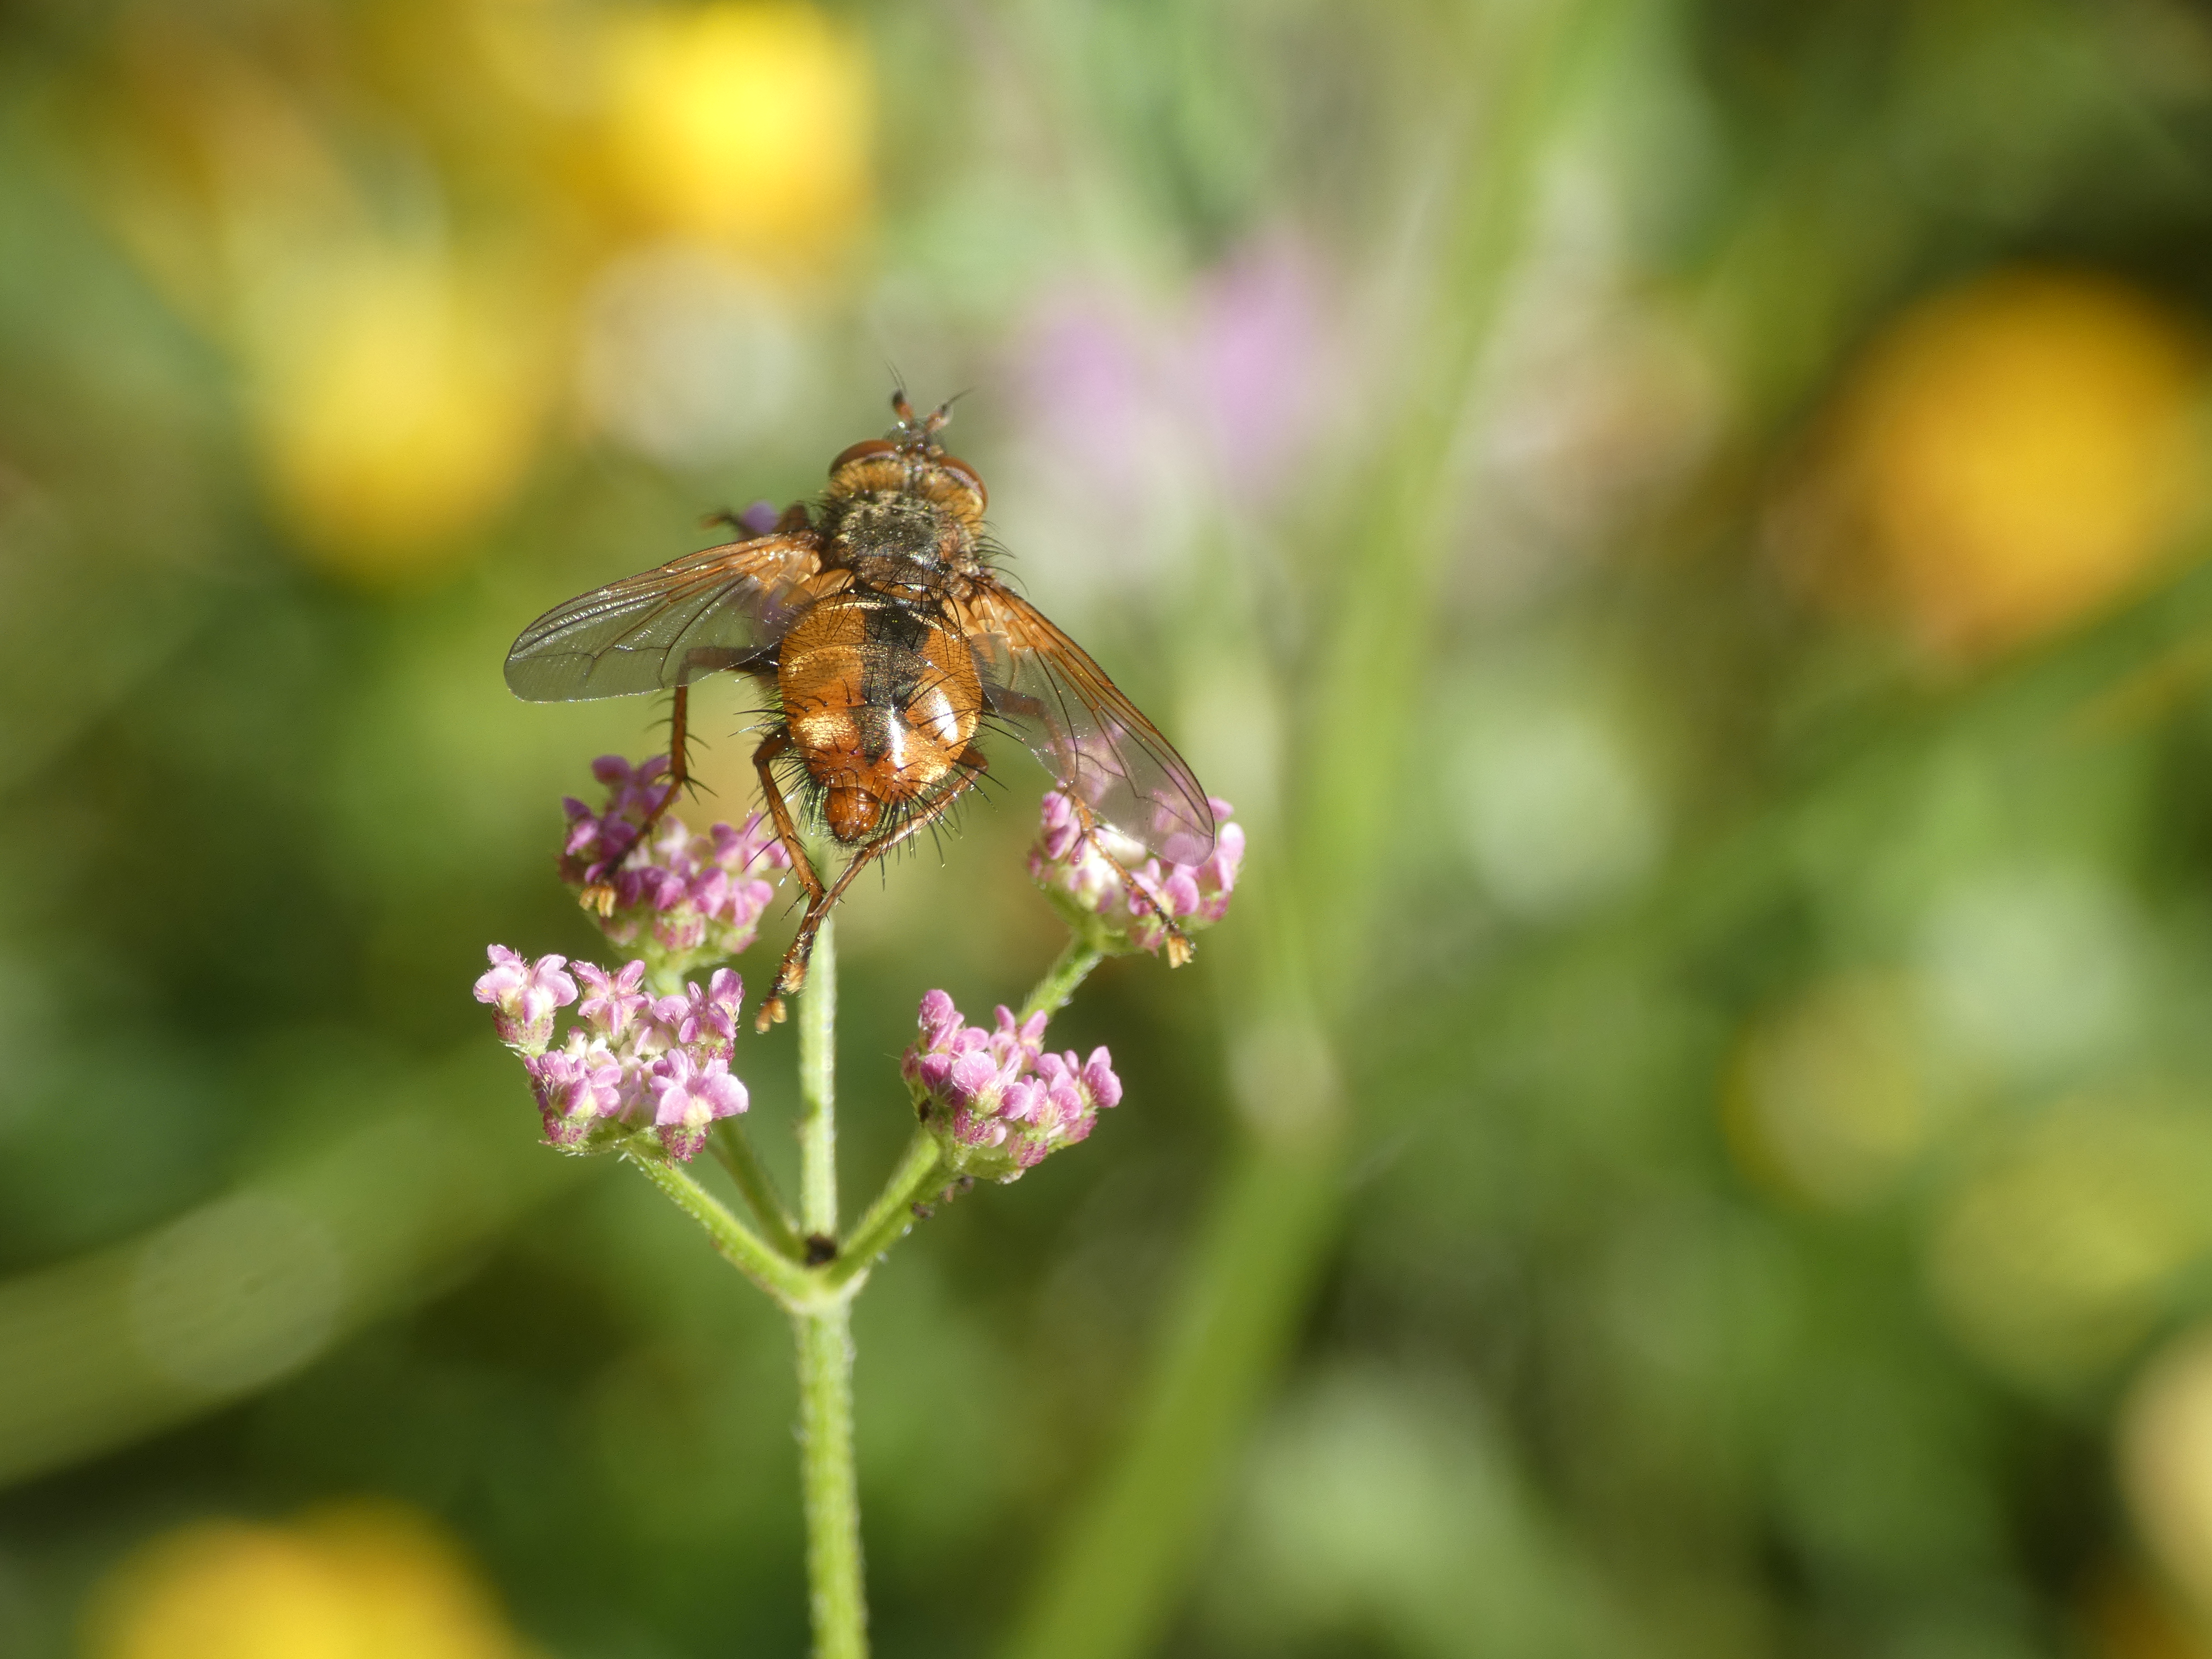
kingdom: Animalia
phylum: Arthropoda
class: Insecta
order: Diptera
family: Tachinidae
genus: Tachina
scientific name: Tachina fera
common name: Mellemfluen oskar
